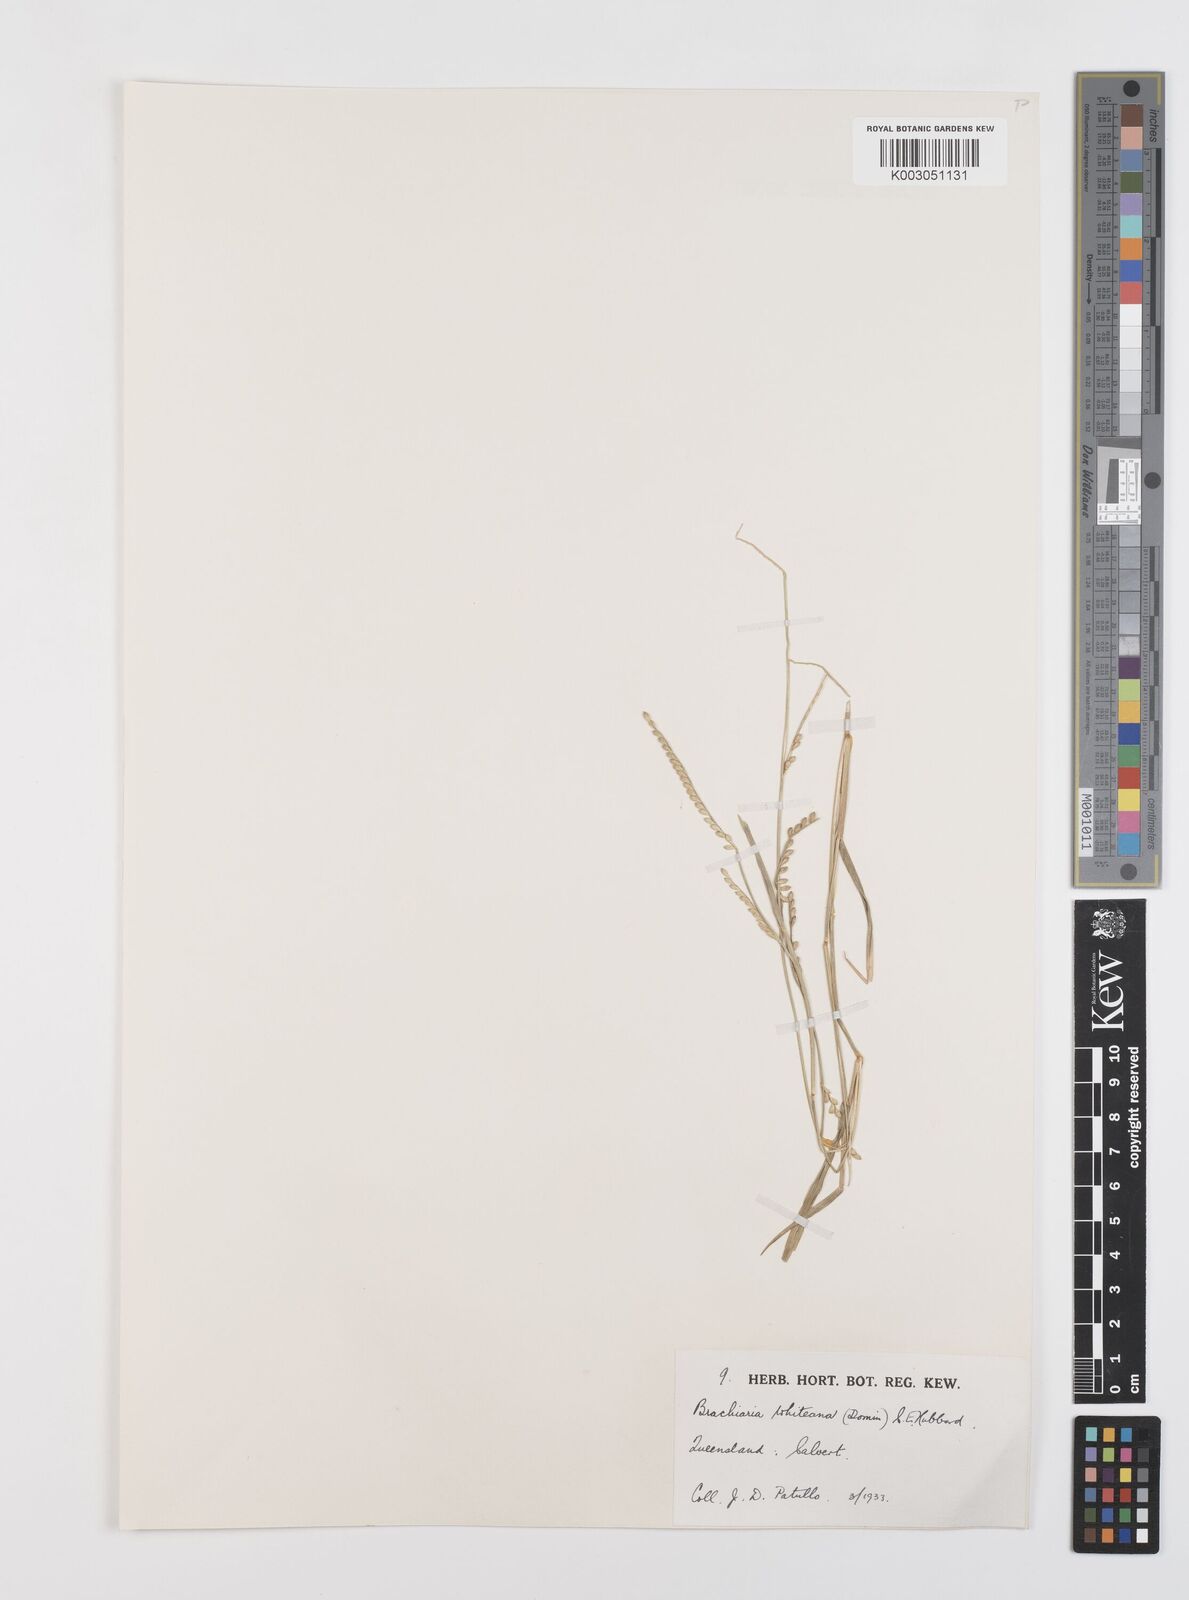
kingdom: Plantae
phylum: Tracheophyta
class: Liliopsida
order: Poales
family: Poaceae
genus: Urochloa
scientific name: Urochloa whiteana
